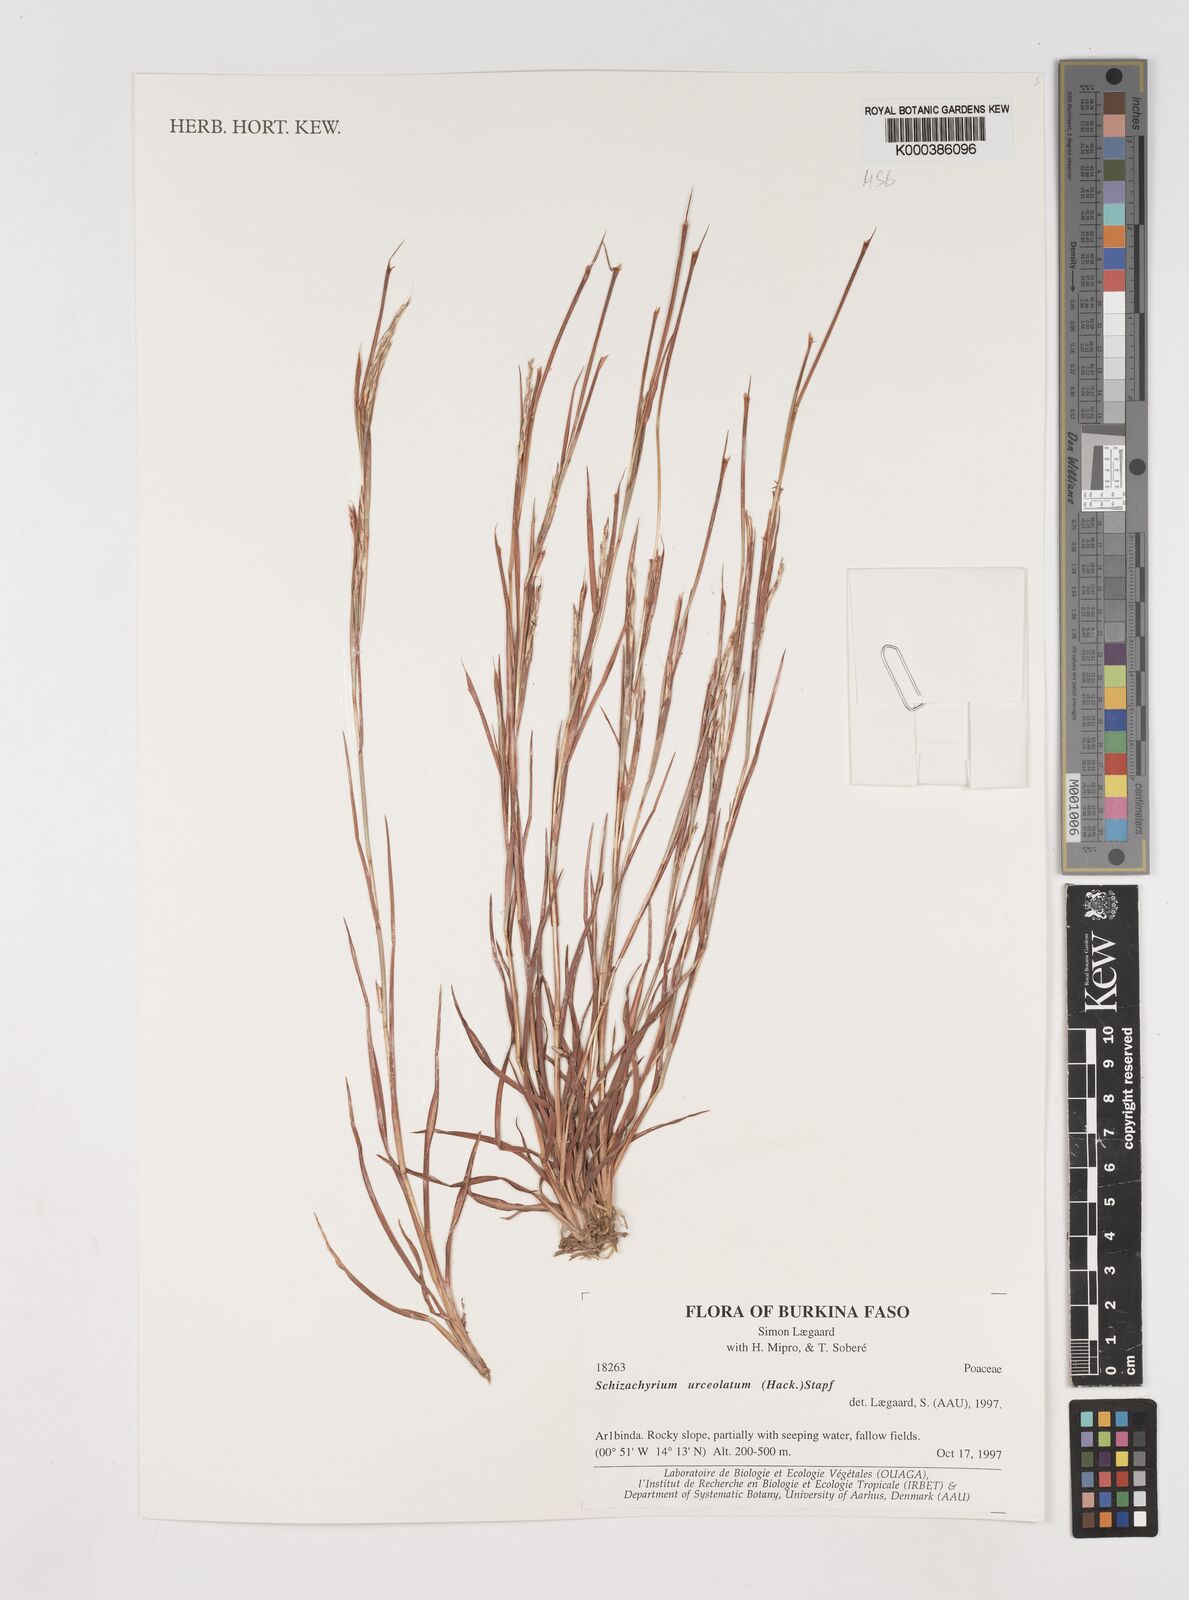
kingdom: Plantae
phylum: Tracheophyta
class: Liliopsida
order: Poales
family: Poaceae
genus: Schizachyrium
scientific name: Schizachyrium urceolatum
